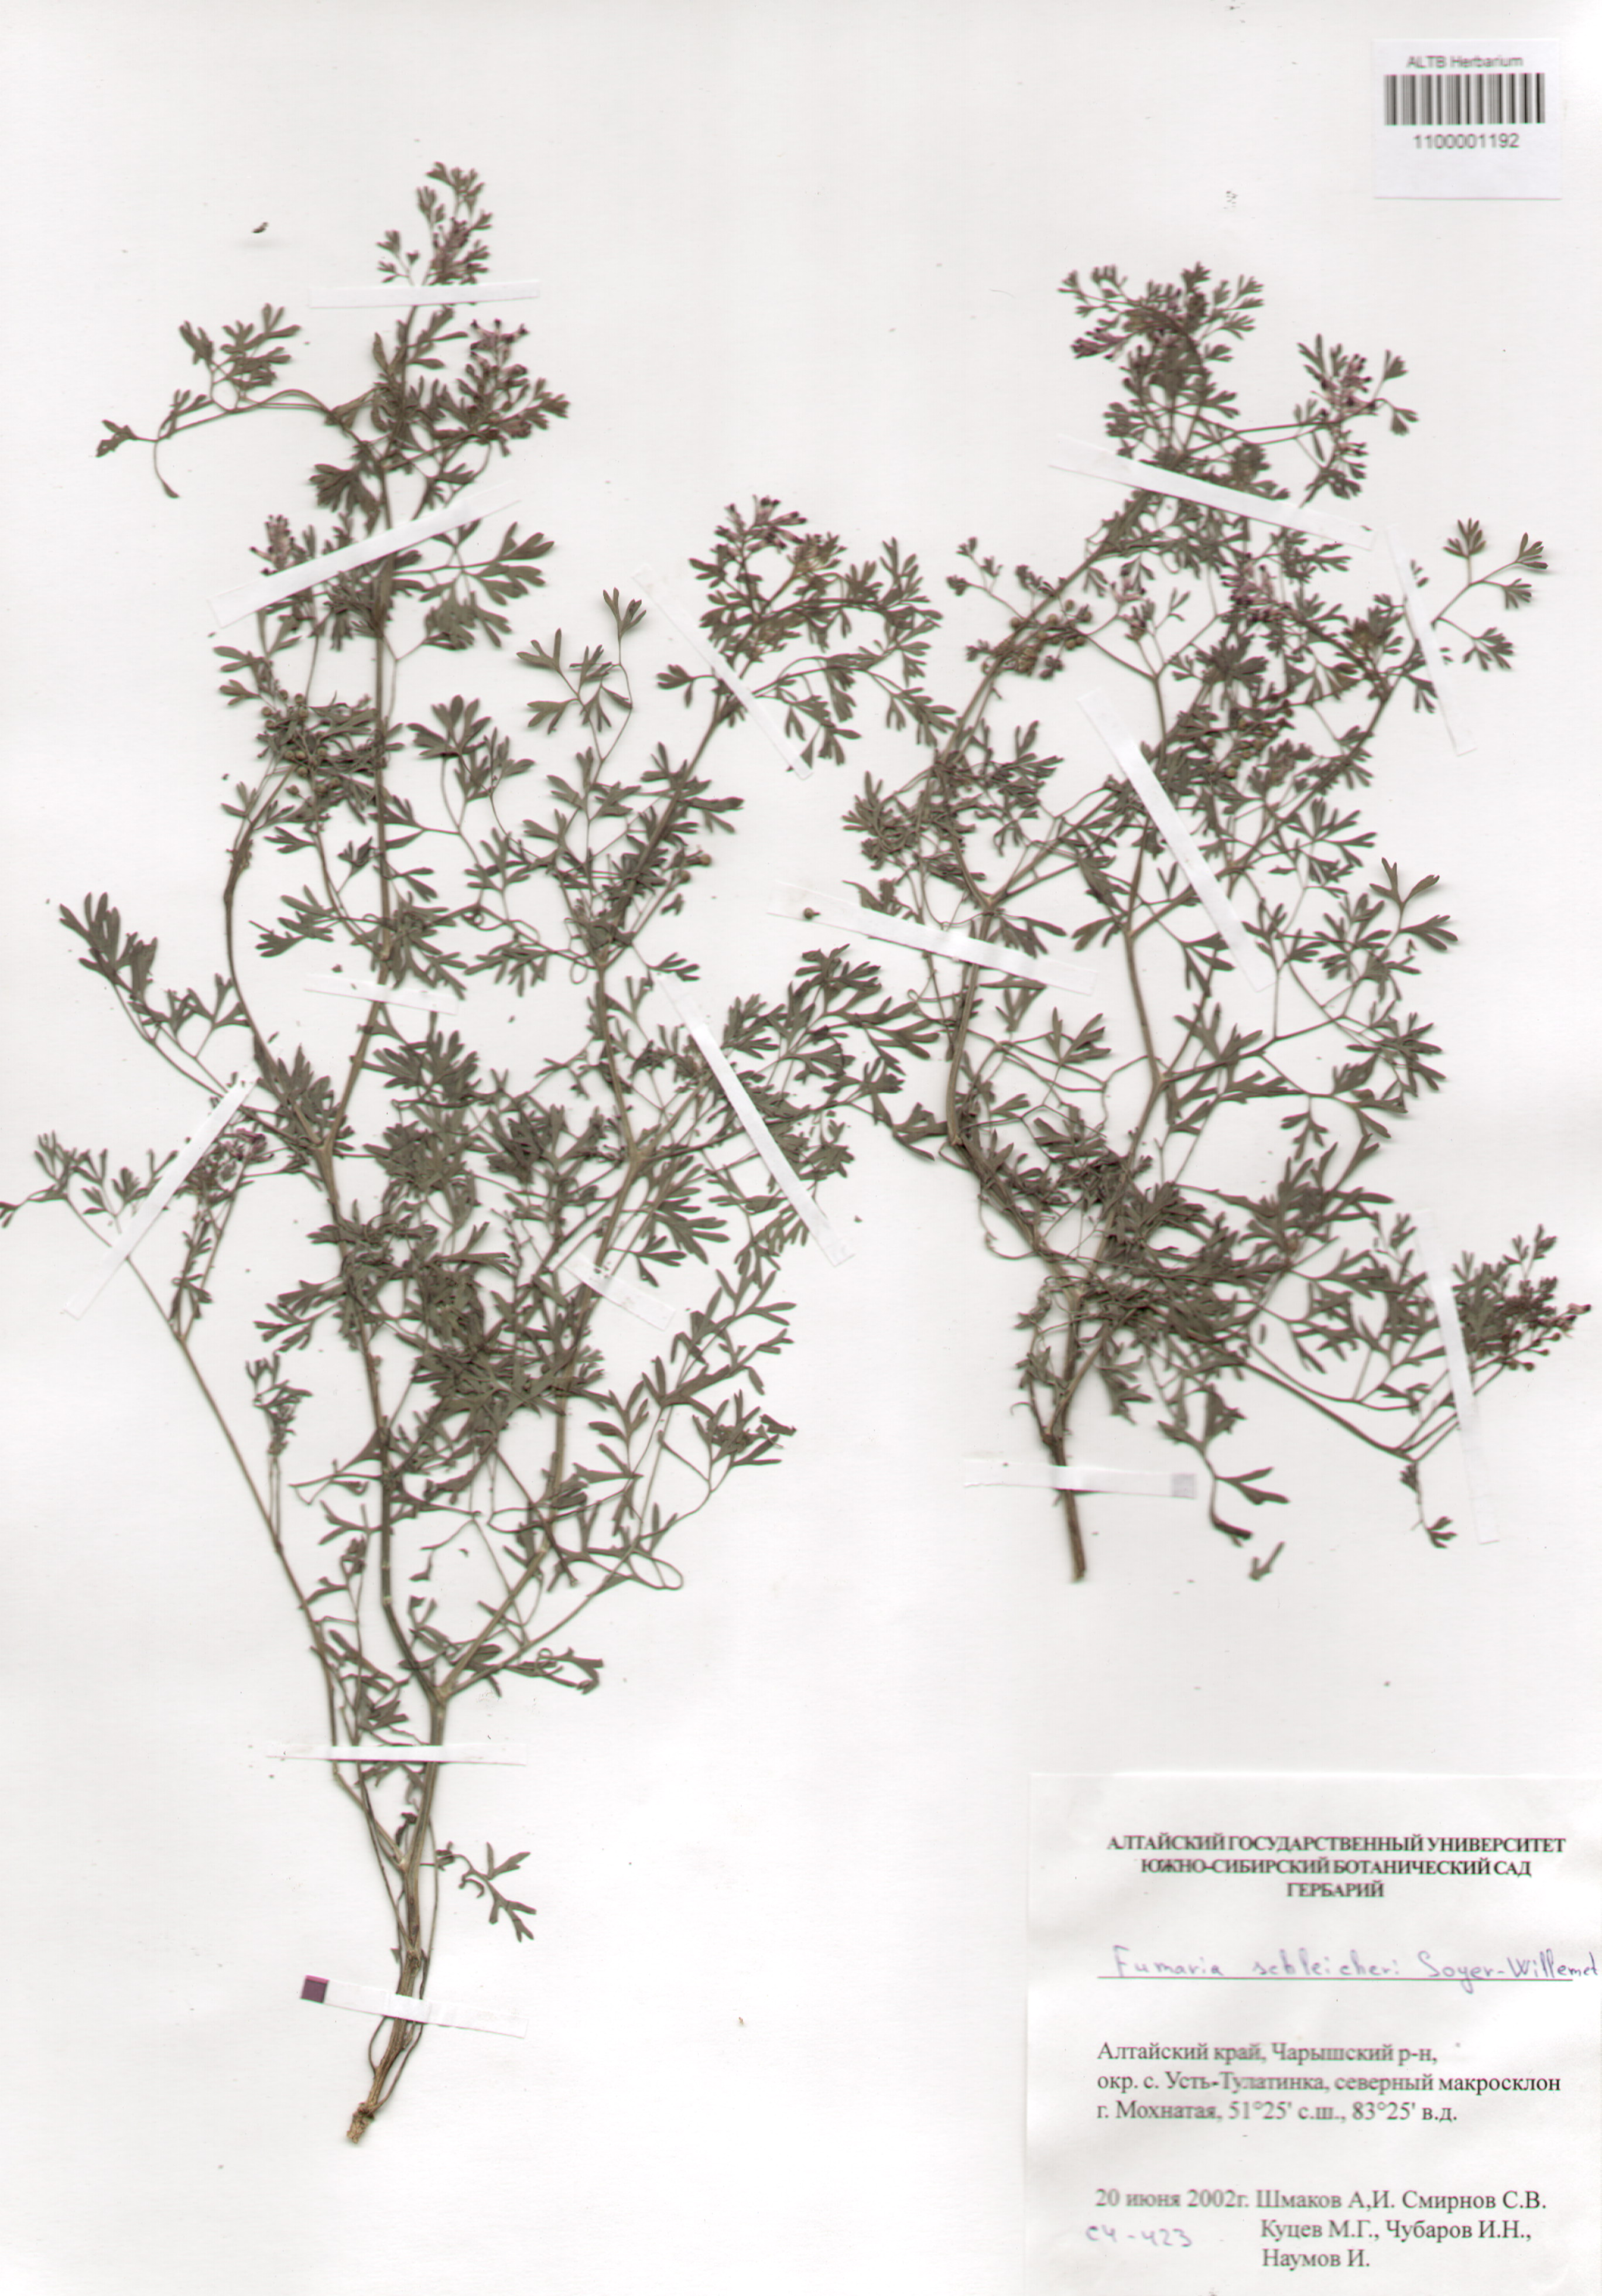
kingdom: Plantae
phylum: Tracheophyta
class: Magnoliopsida
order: Ranunculales
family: Papaveraceae
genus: Fumaria
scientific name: Fumaria schleicheri
